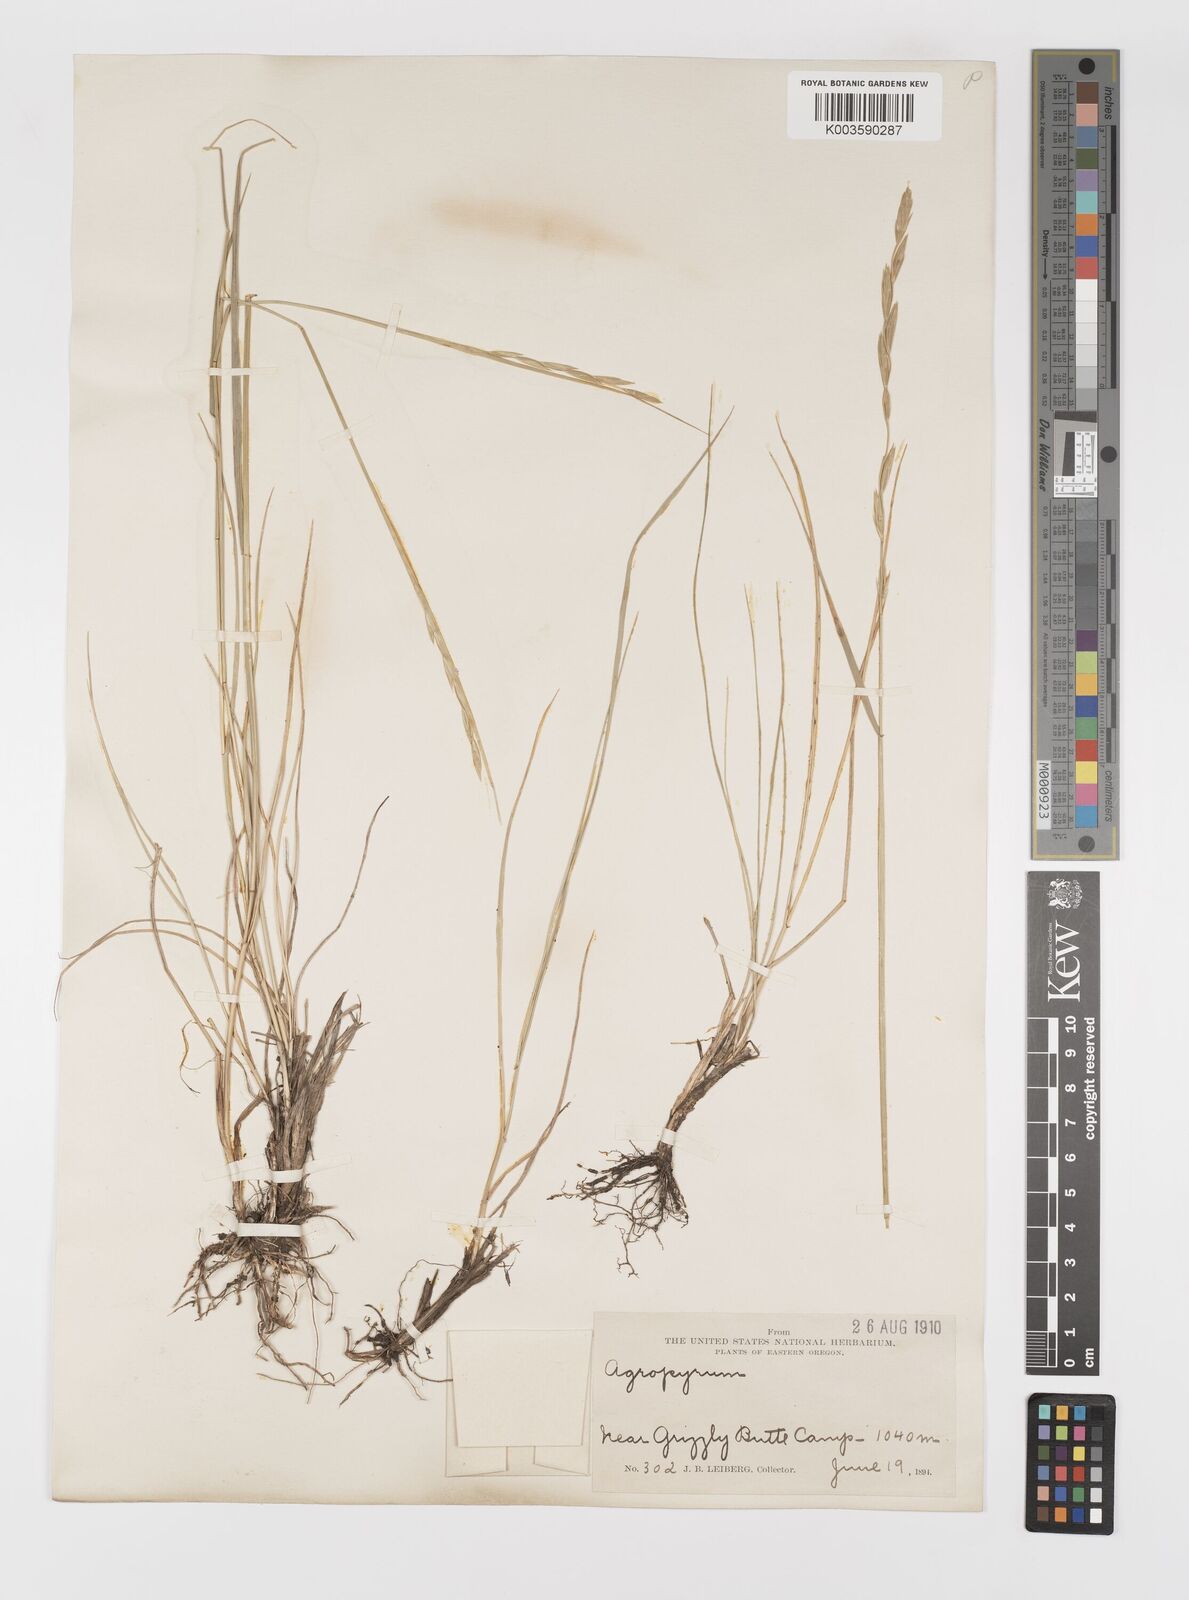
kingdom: Plantae
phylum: Tracheophyta
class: Liliopsida
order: Poales
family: Poaceae
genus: Elymus
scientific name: Elymus
